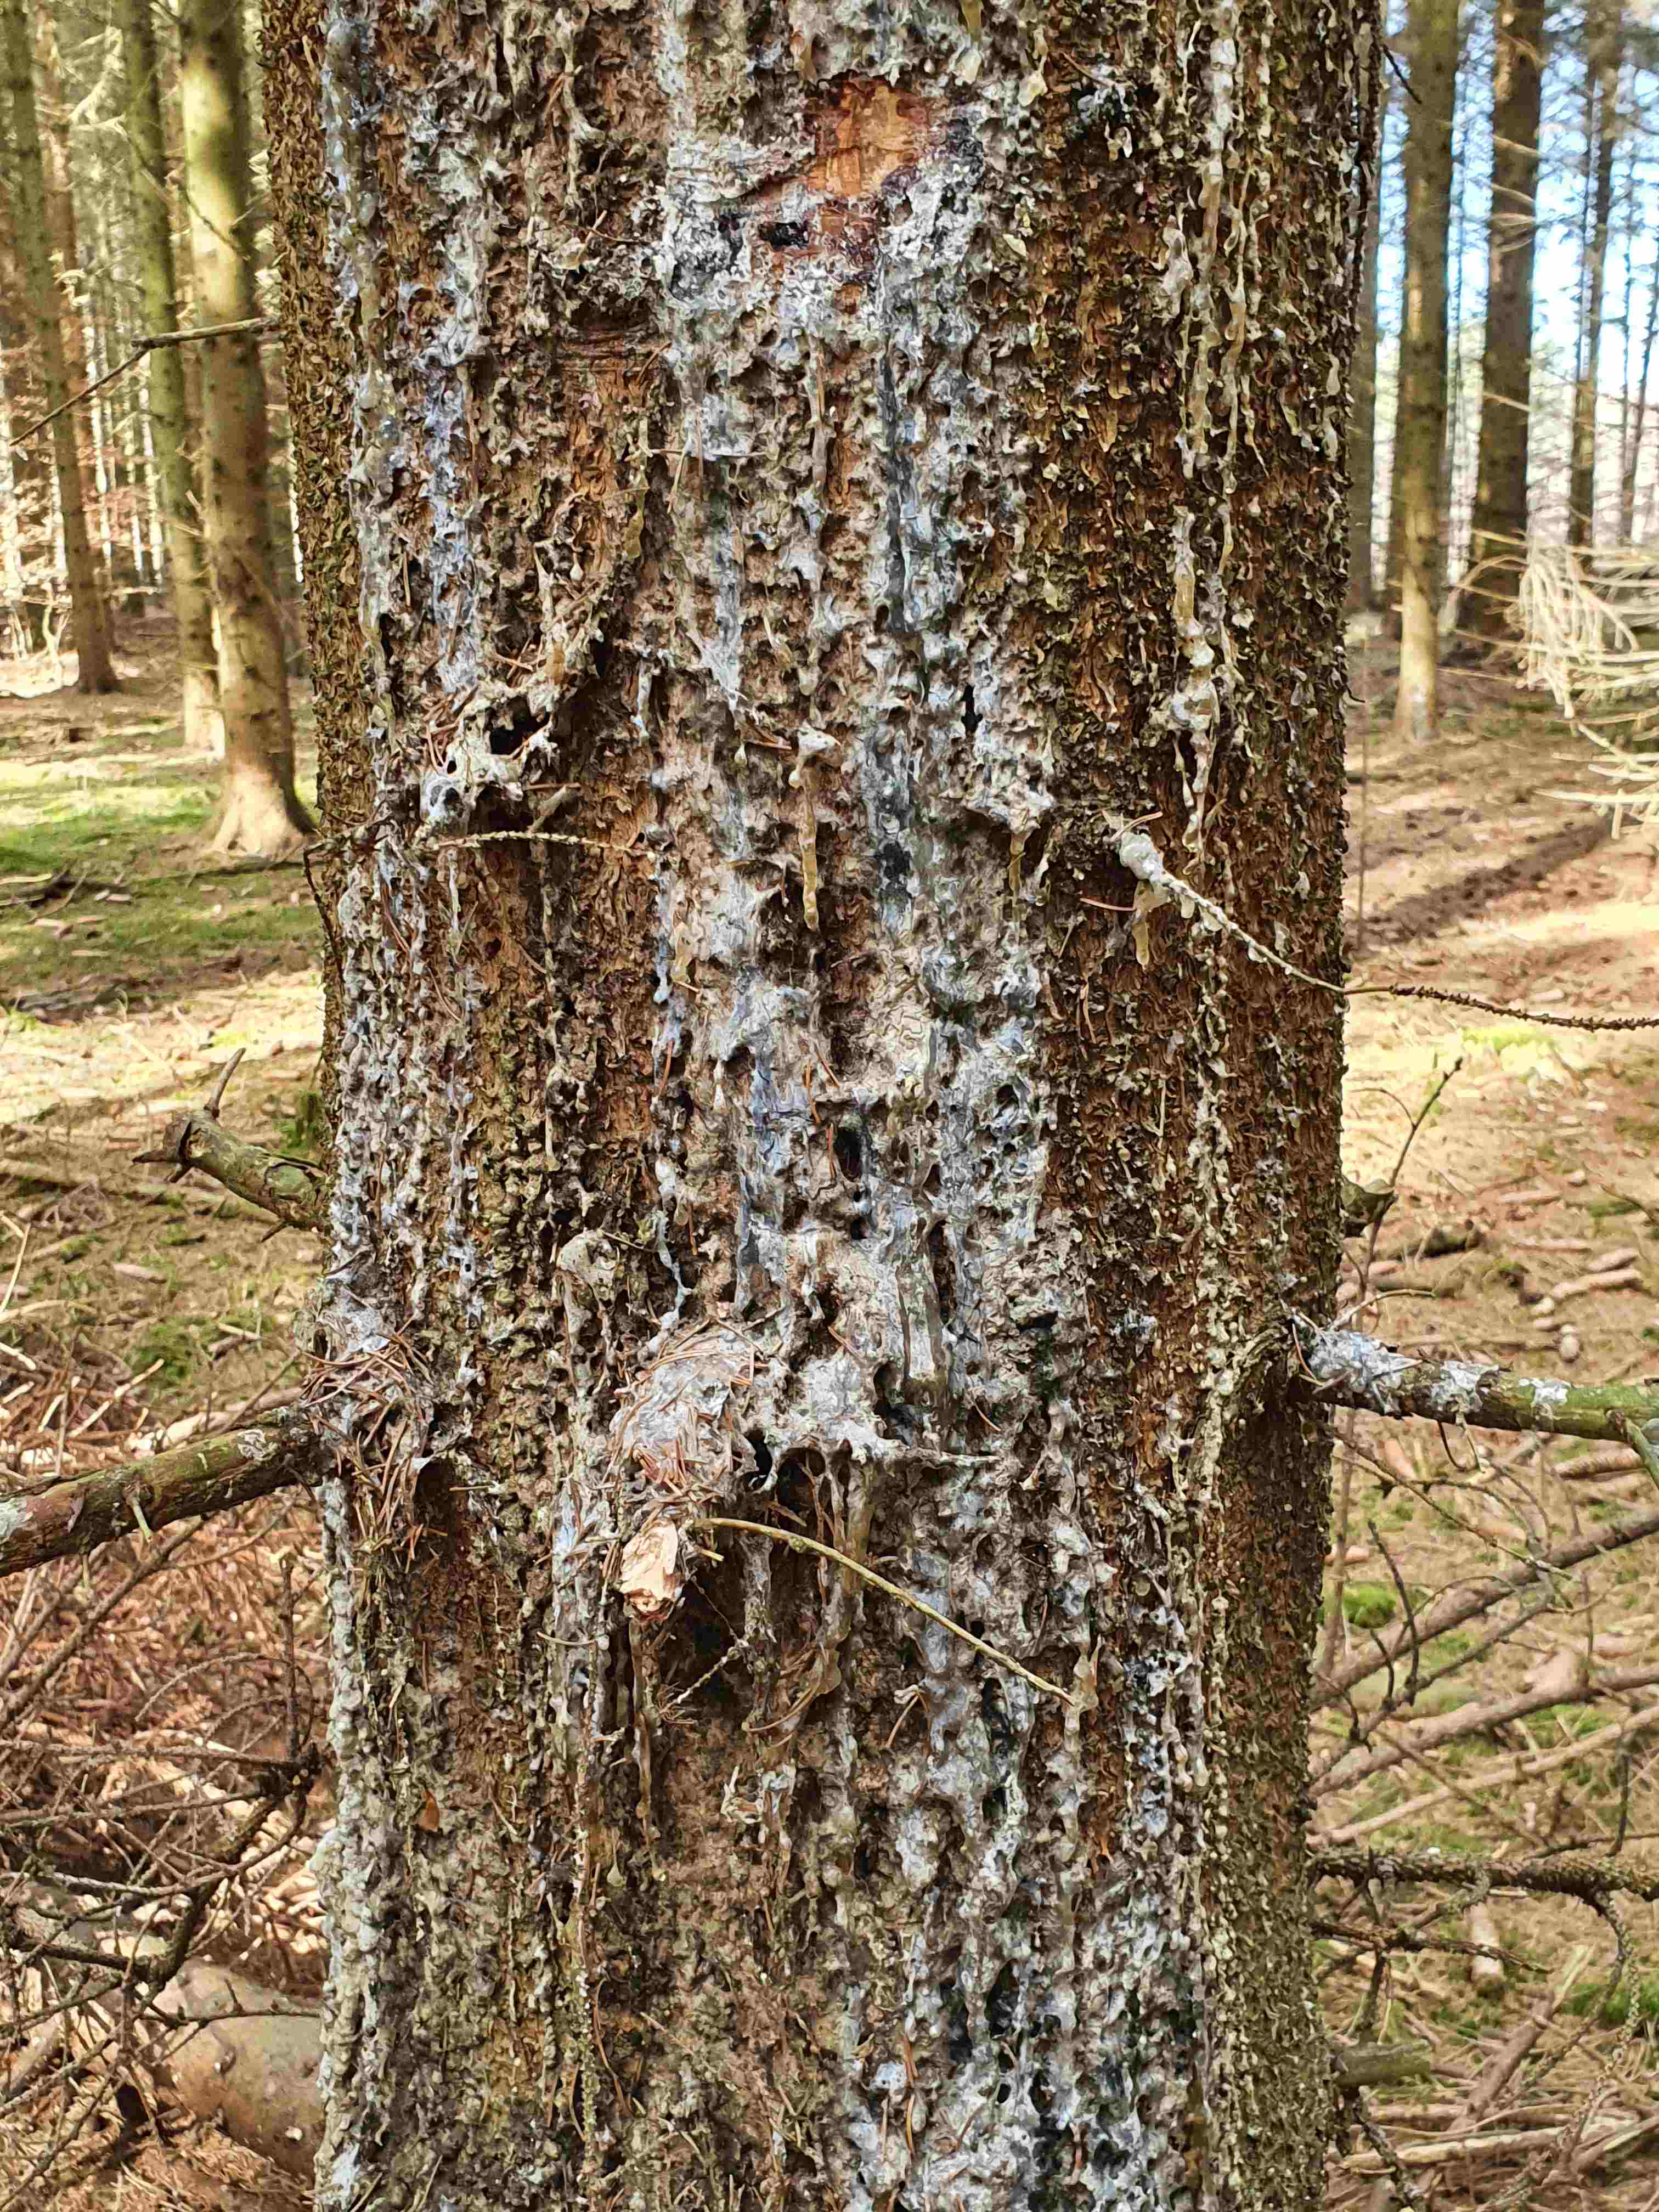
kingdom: Fungi
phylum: Ascomycota
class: Sareomycetes
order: Sareales
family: Sareaceae
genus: Sarea
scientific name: Sarea resinae
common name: orangegul harpiksskive
